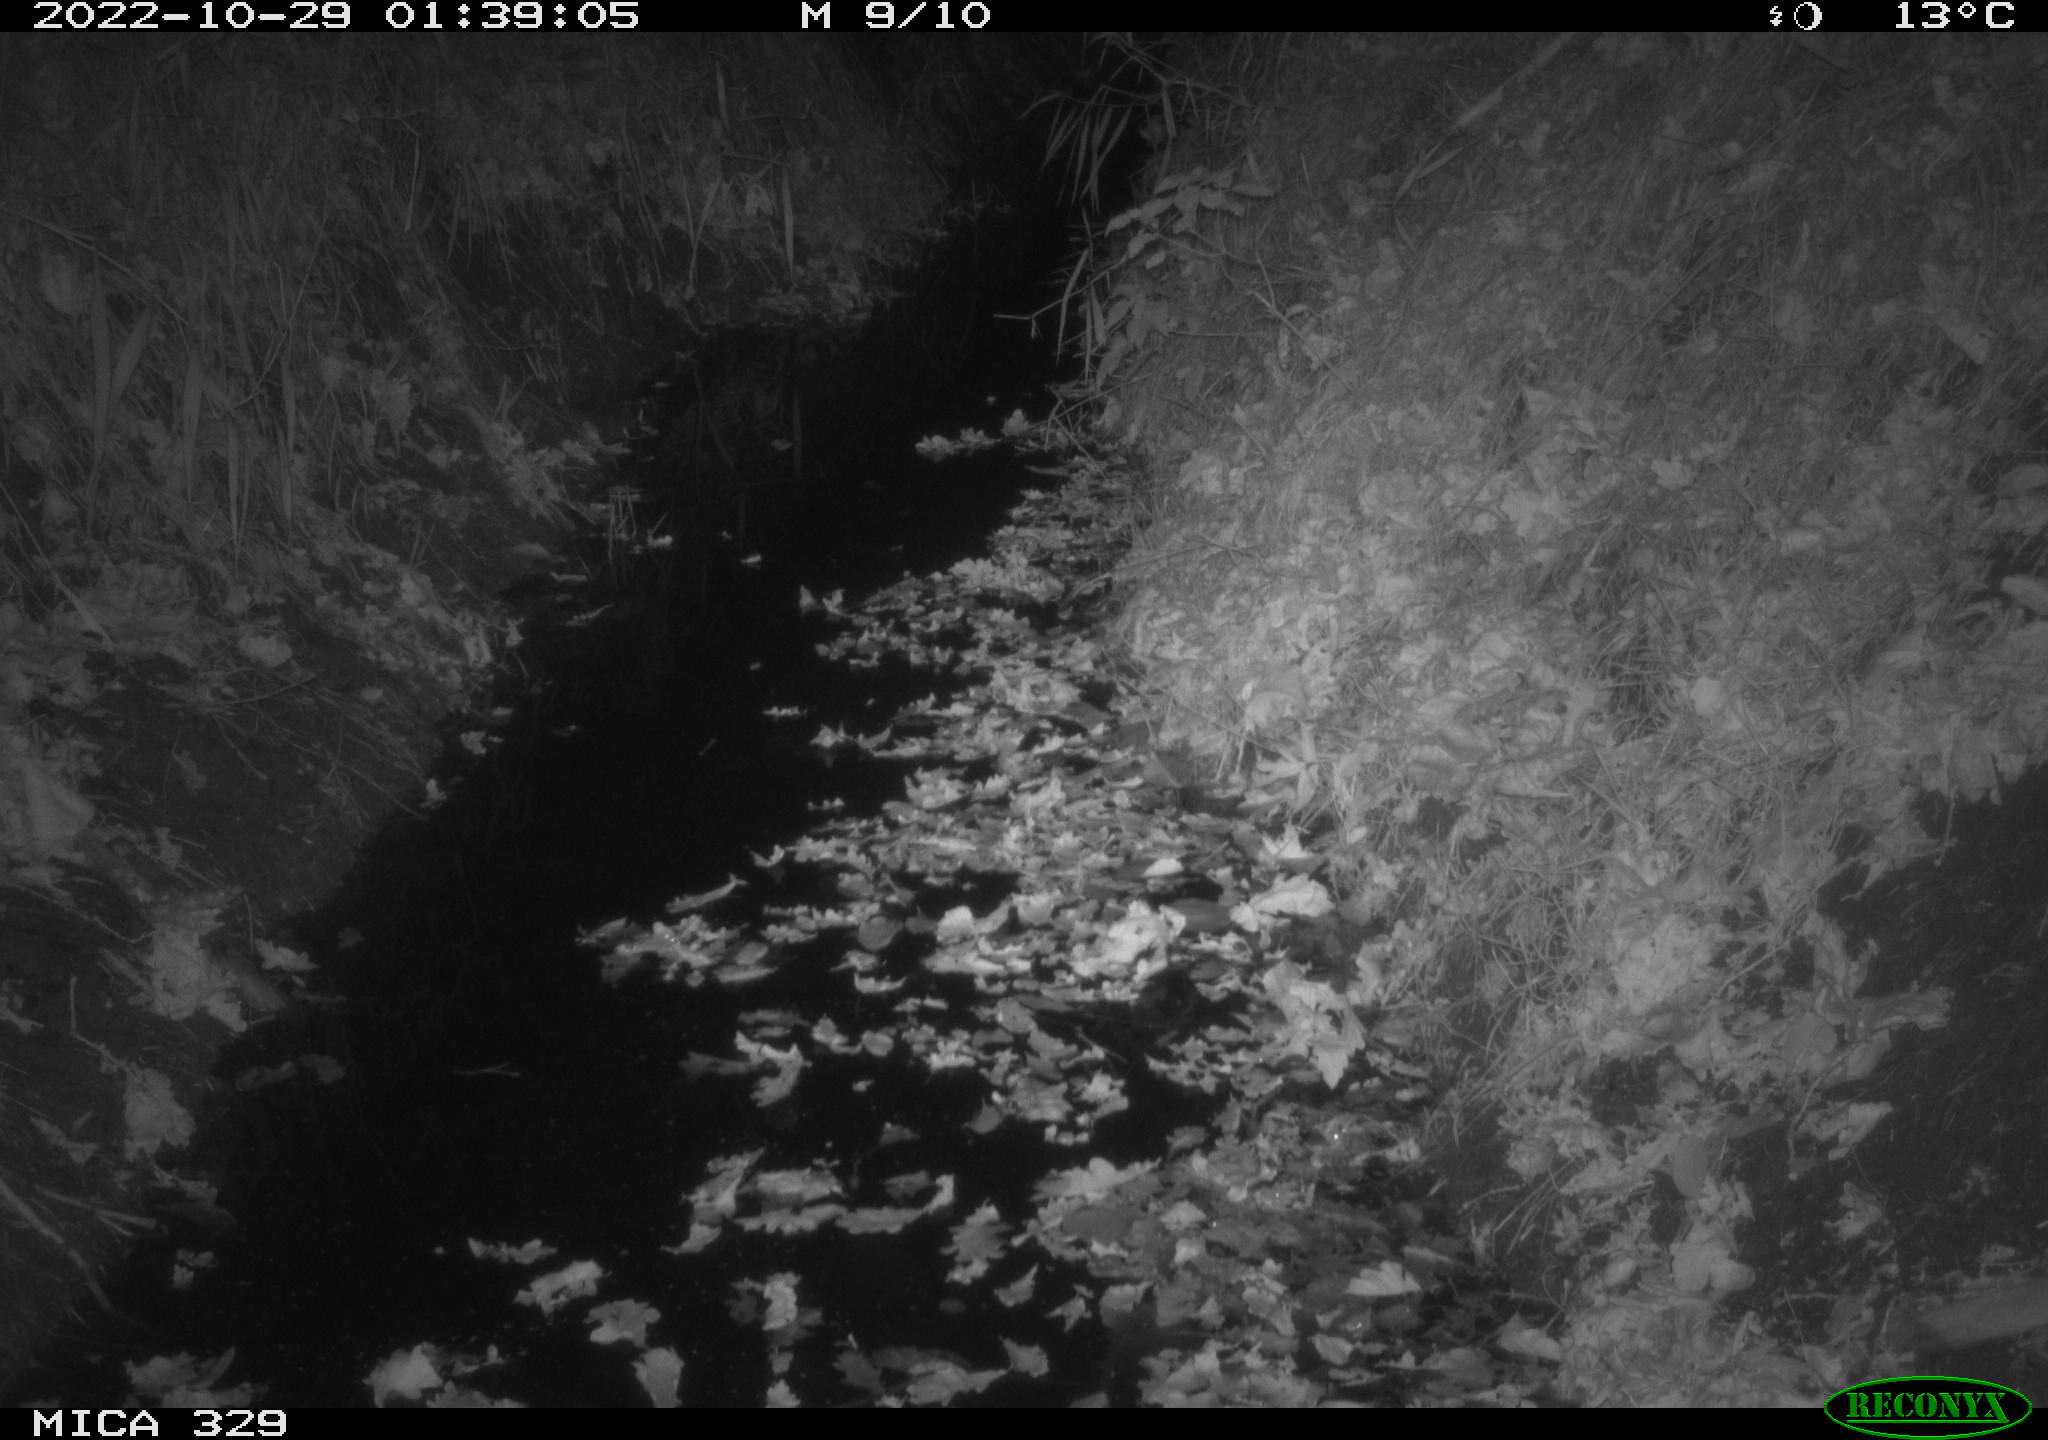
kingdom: Animalia
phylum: Chordata
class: Mammalia
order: Rodentia
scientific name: Rodentia
